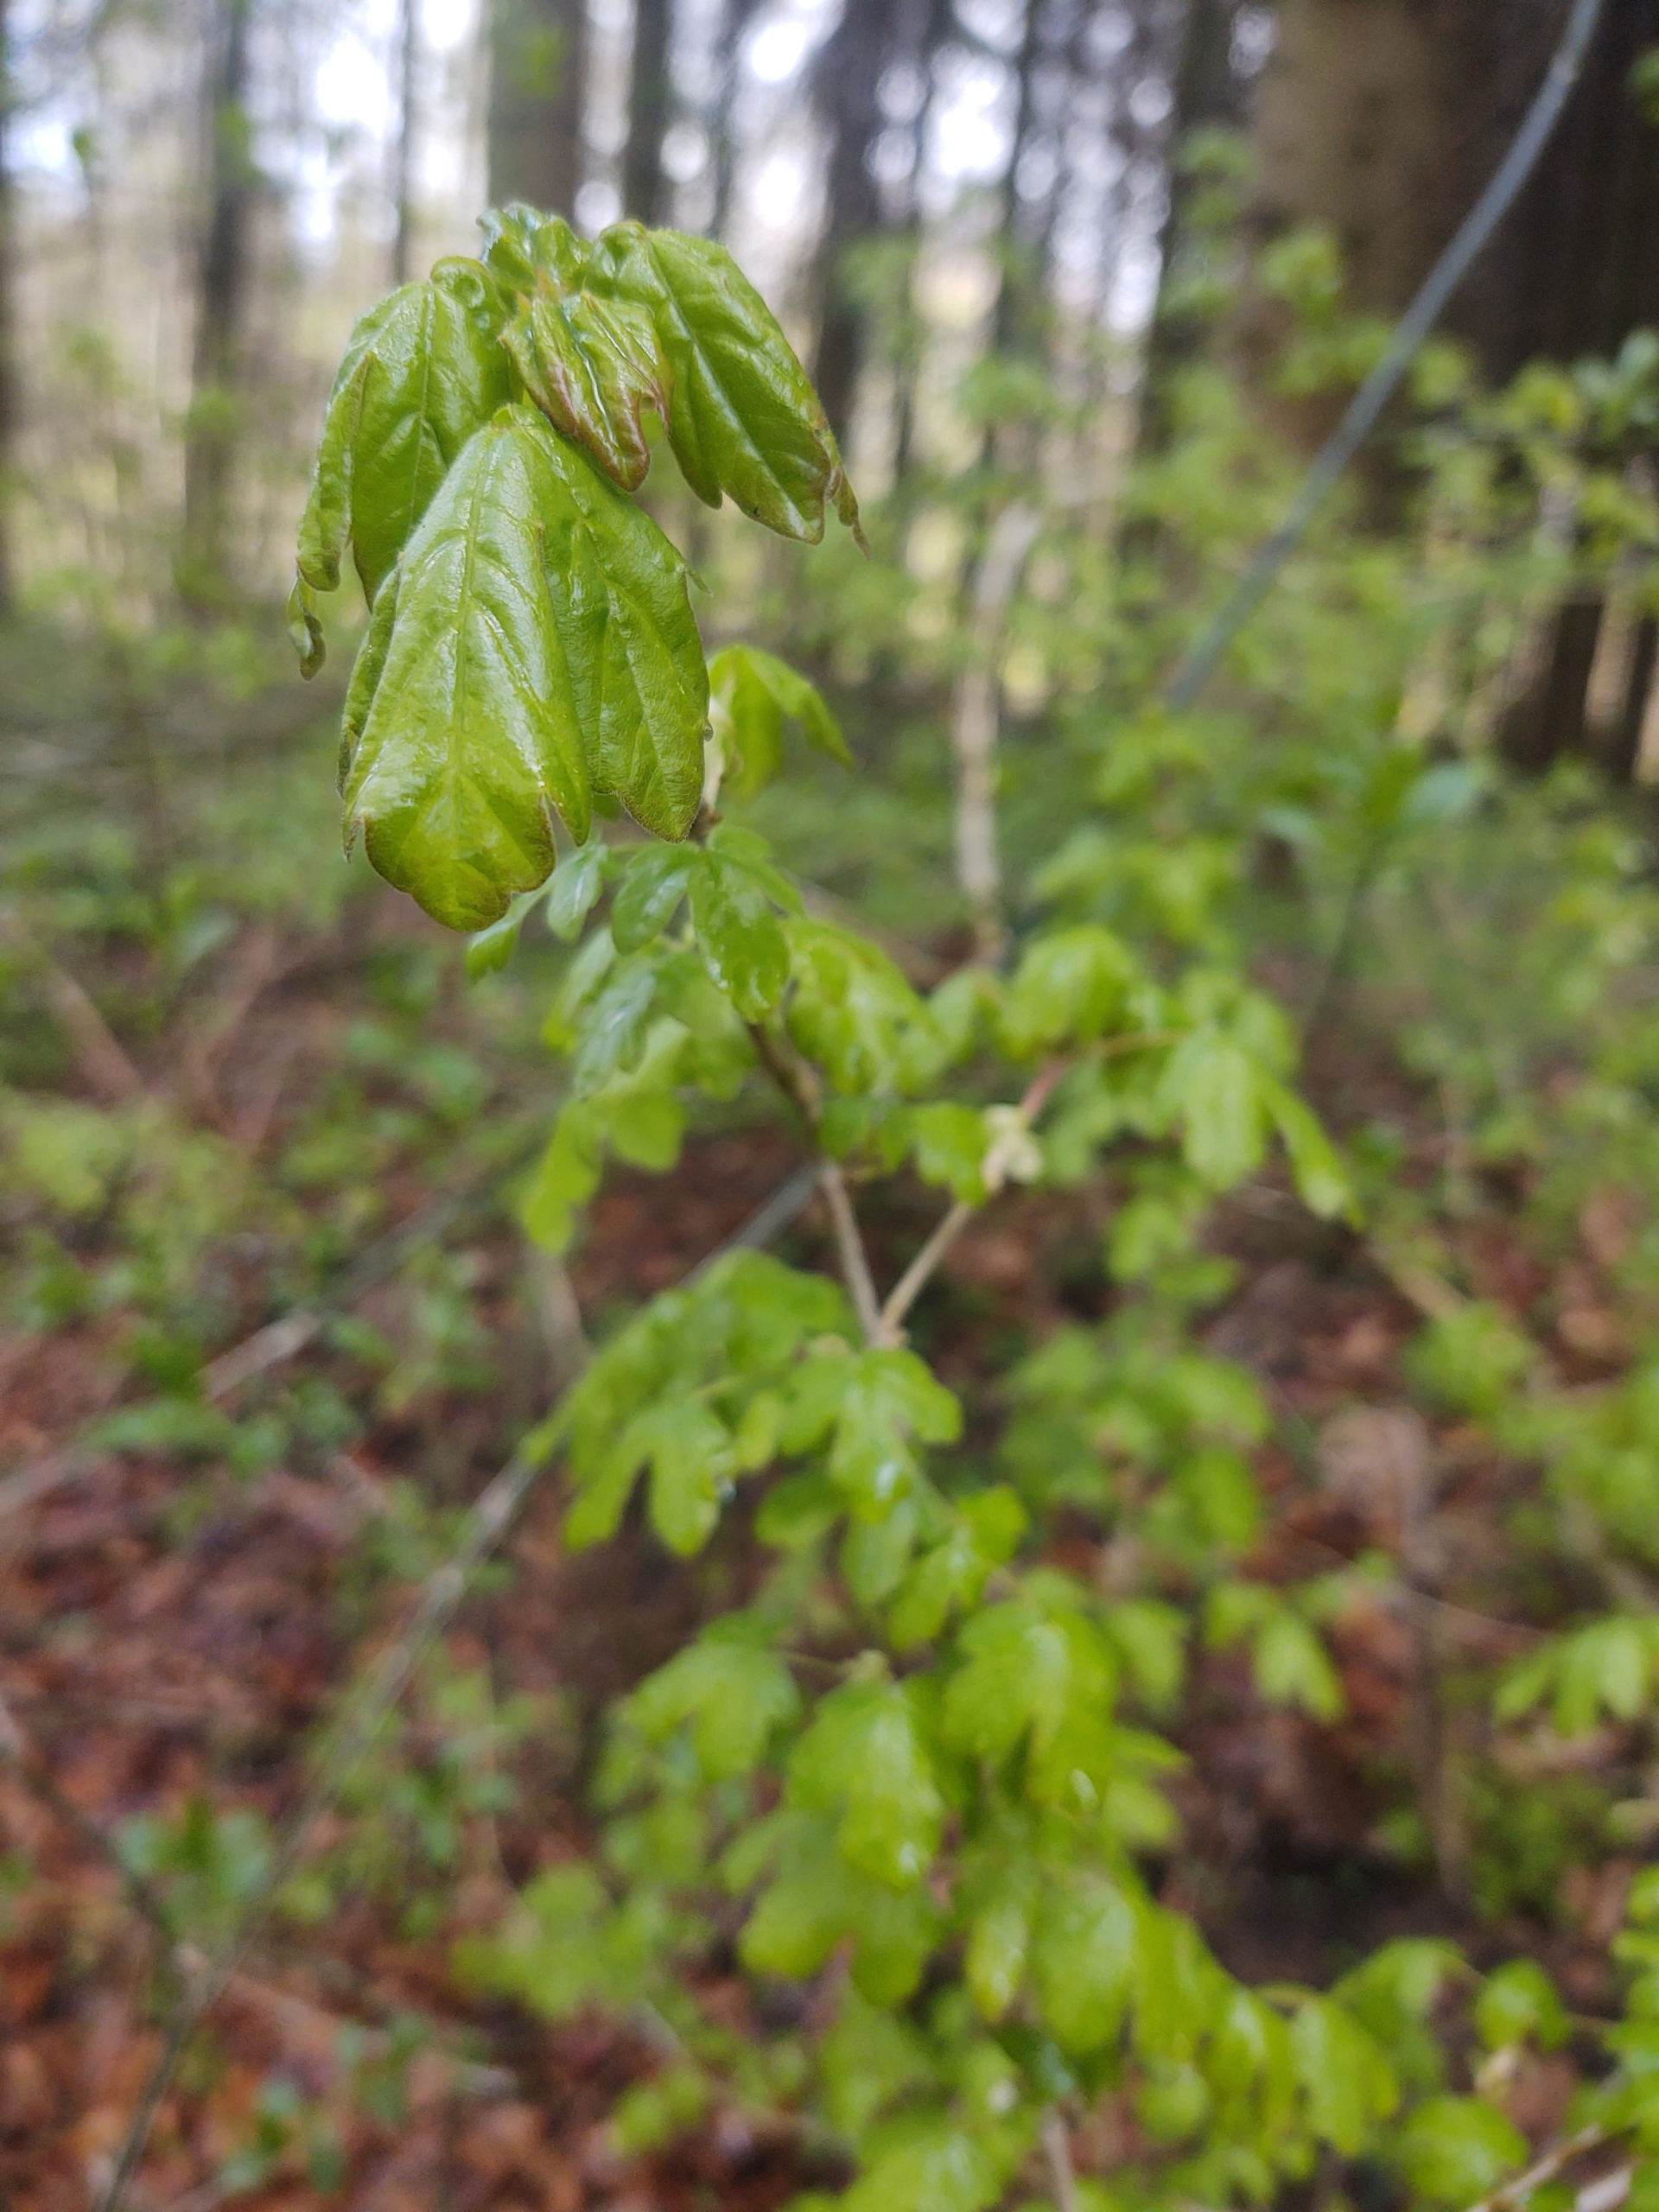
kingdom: Plantae
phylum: Tracheophyta
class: Magnoliopsida
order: Sapindales
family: Sapindaceae
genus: Acer
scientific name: Acer campestre
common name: Navr
